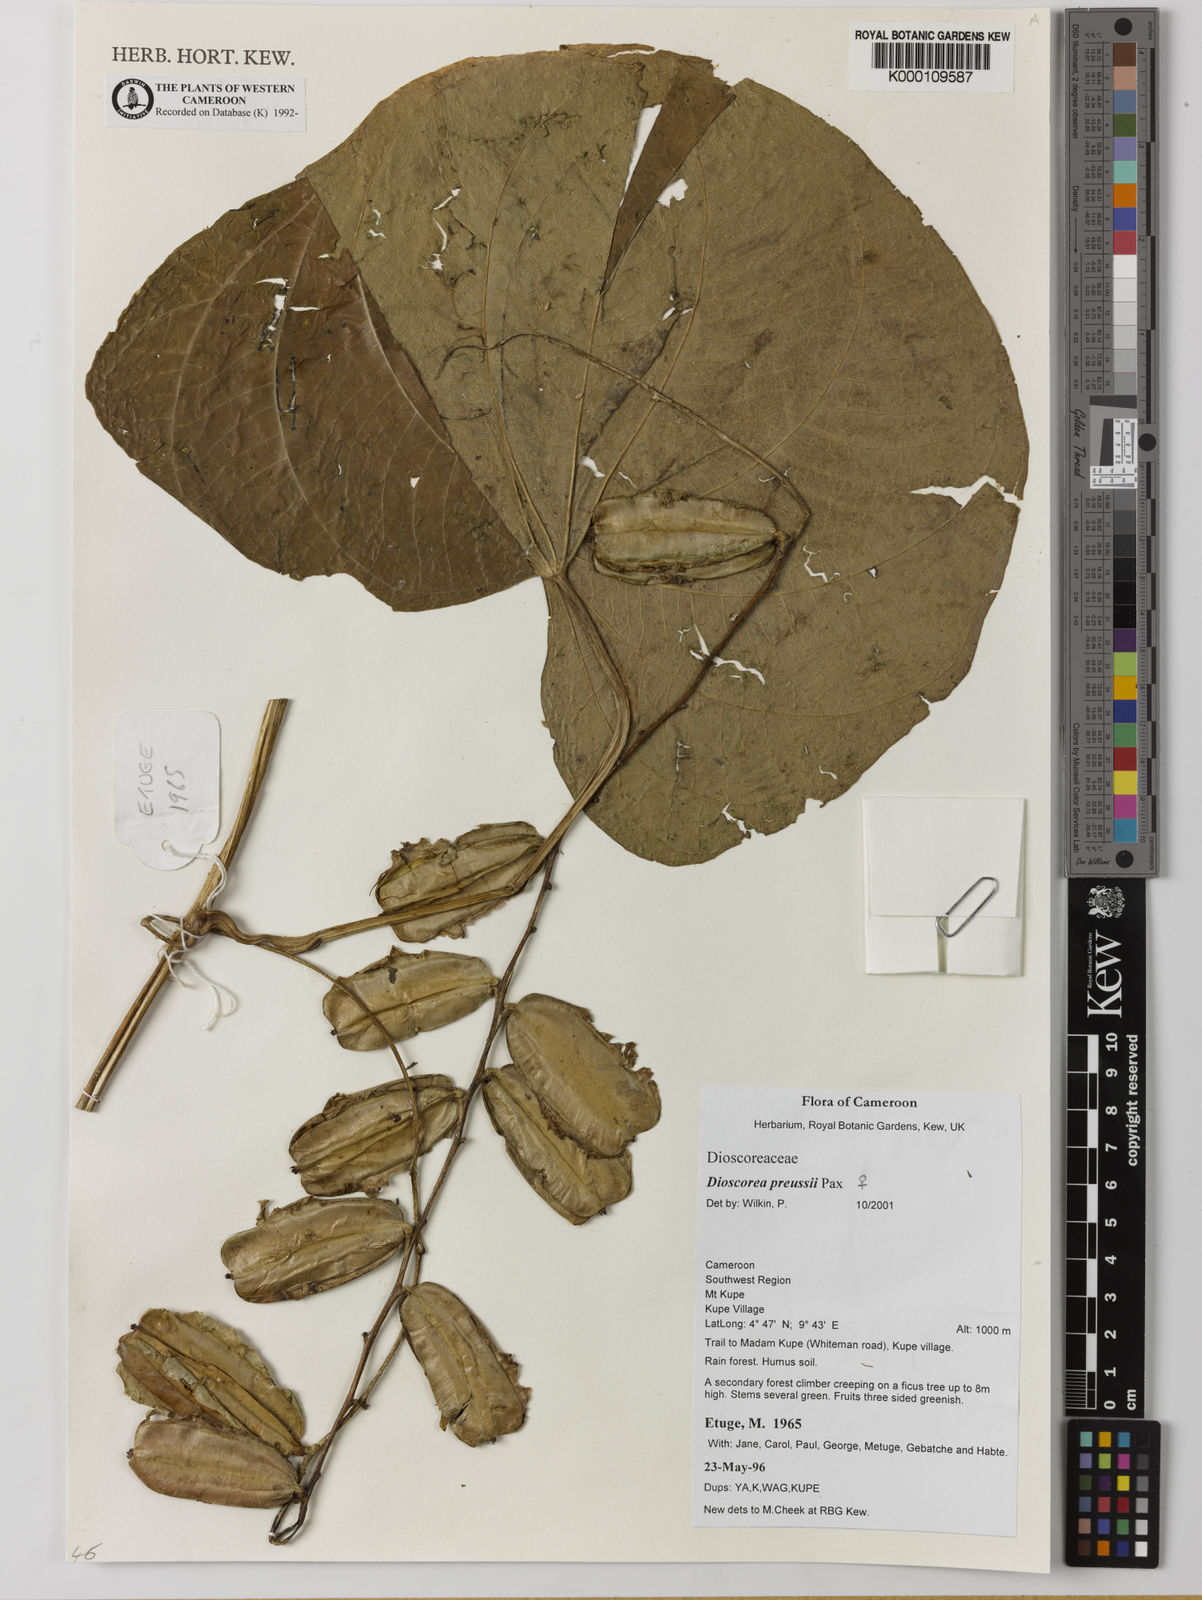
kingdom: Plantae
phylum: Tracheophyta
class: Liliopsida
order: Dioscoreales
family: Dioscoreaceae
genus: Dioscorea
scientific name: Dioscorea preussii
